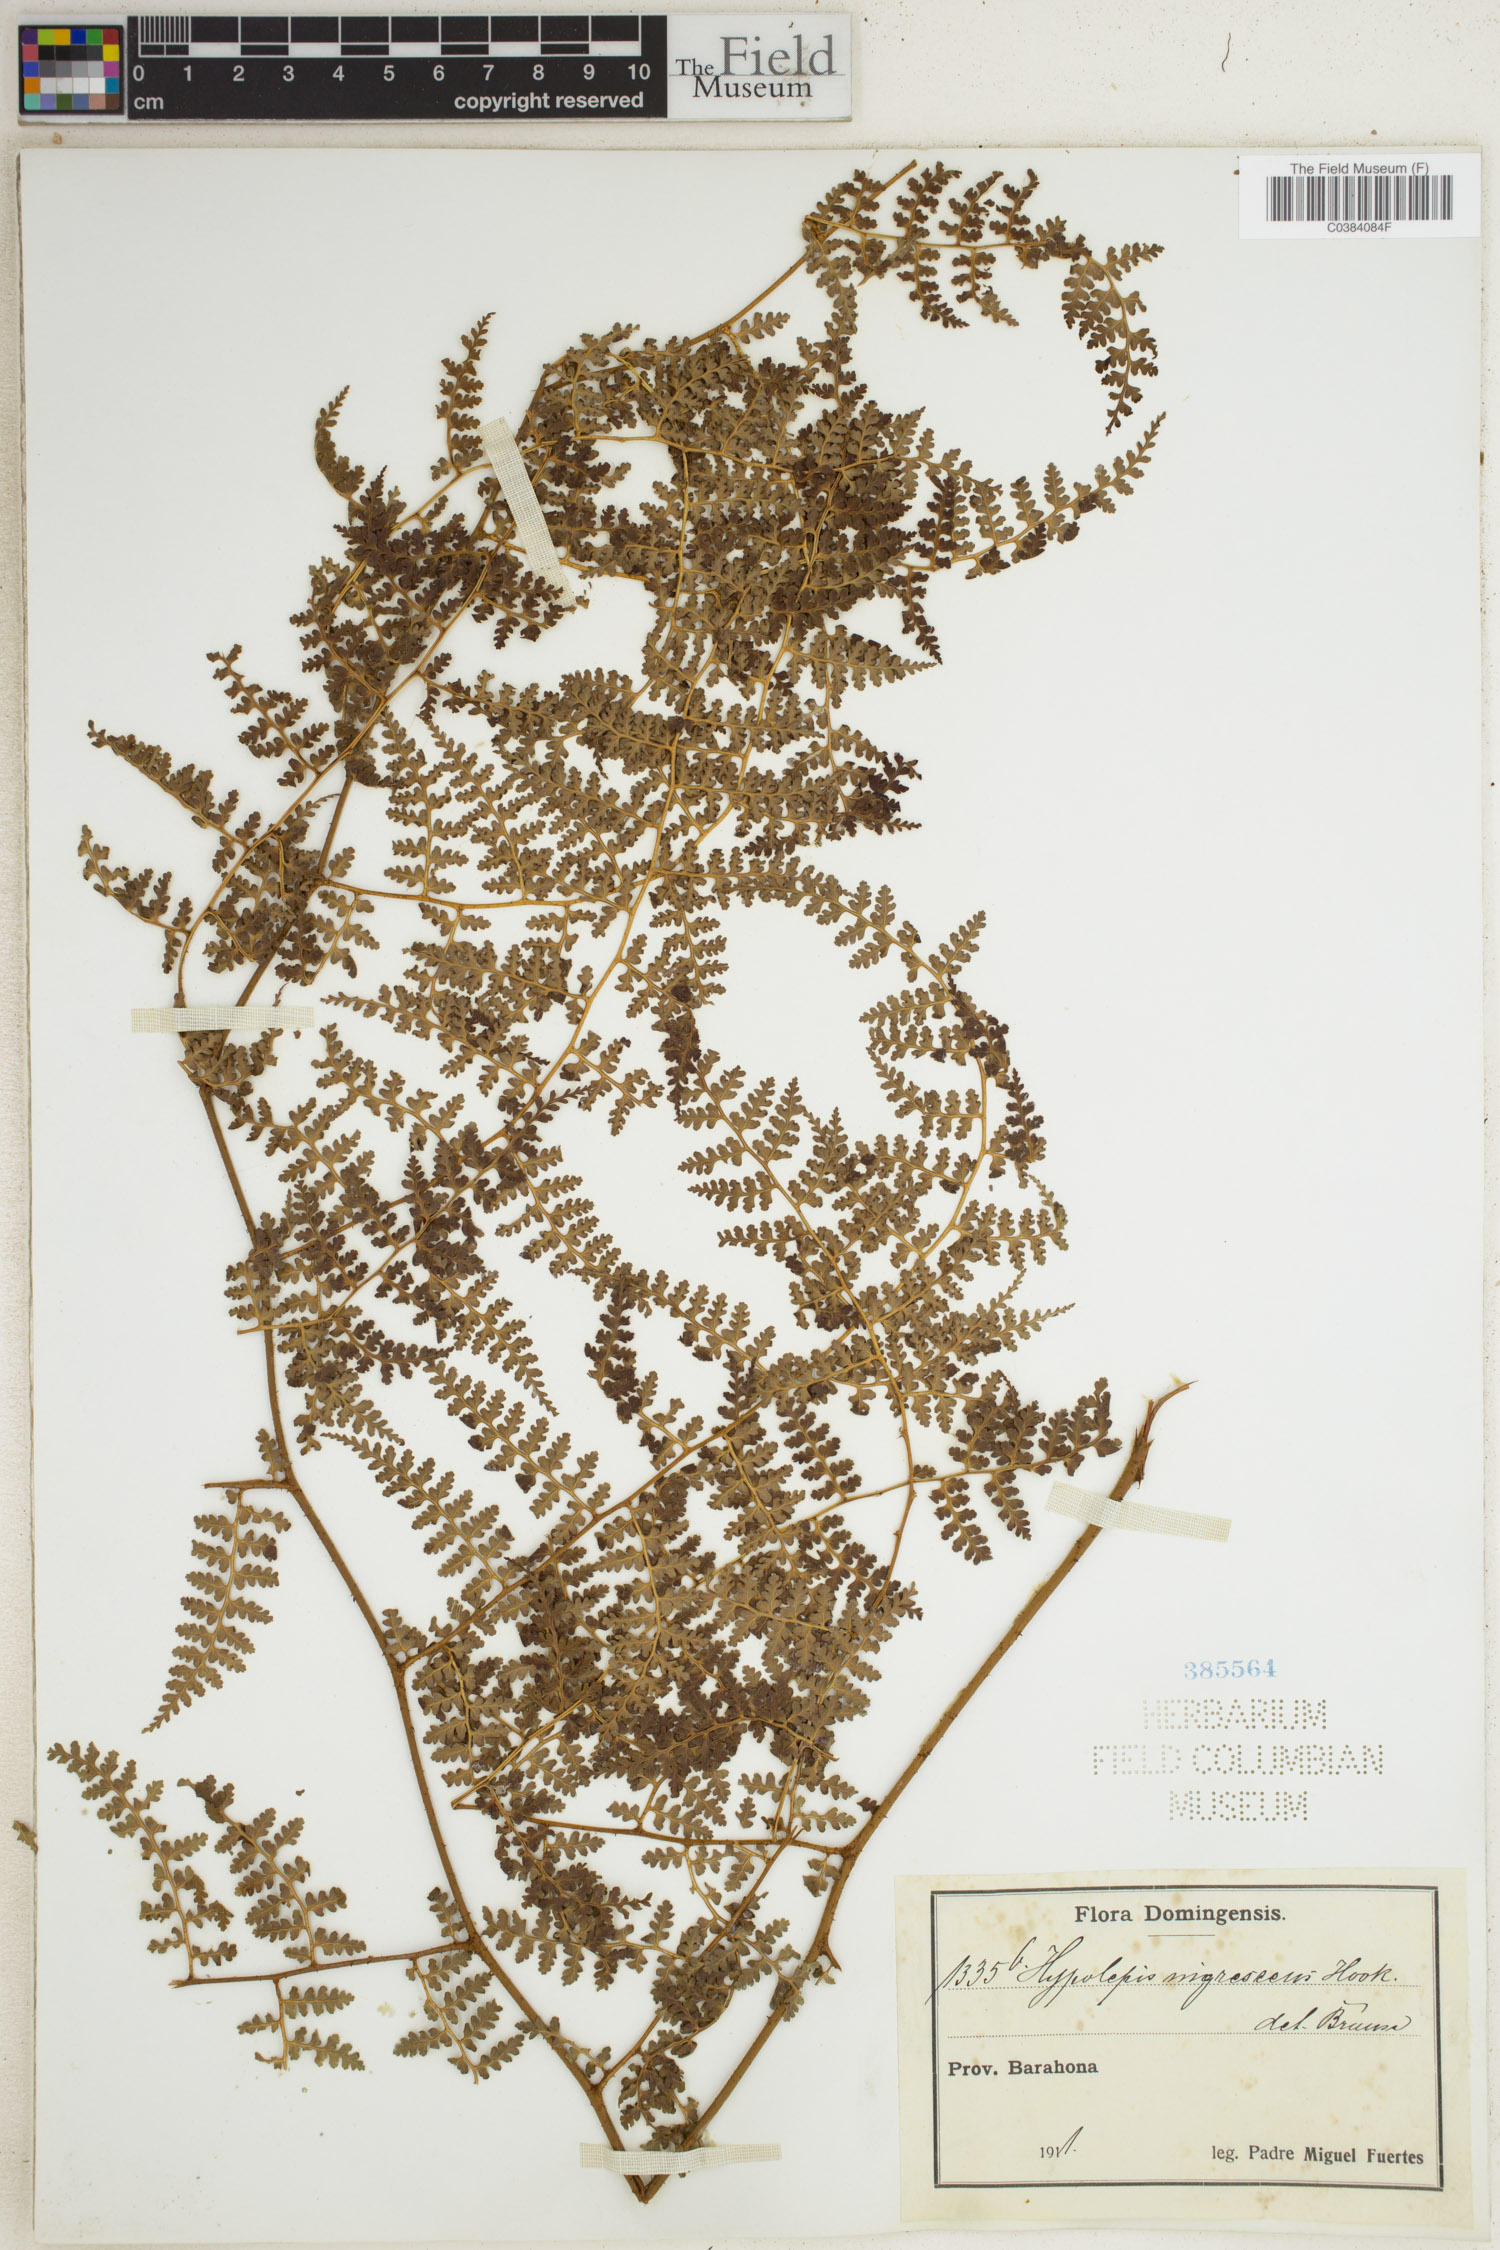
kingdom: Plantae
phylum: Tracheophyta
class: Polypodiopsida
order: Polypodiales
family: Dennstaedtiaceae
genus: Hypolepis
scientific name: Hypolepis rigescens
